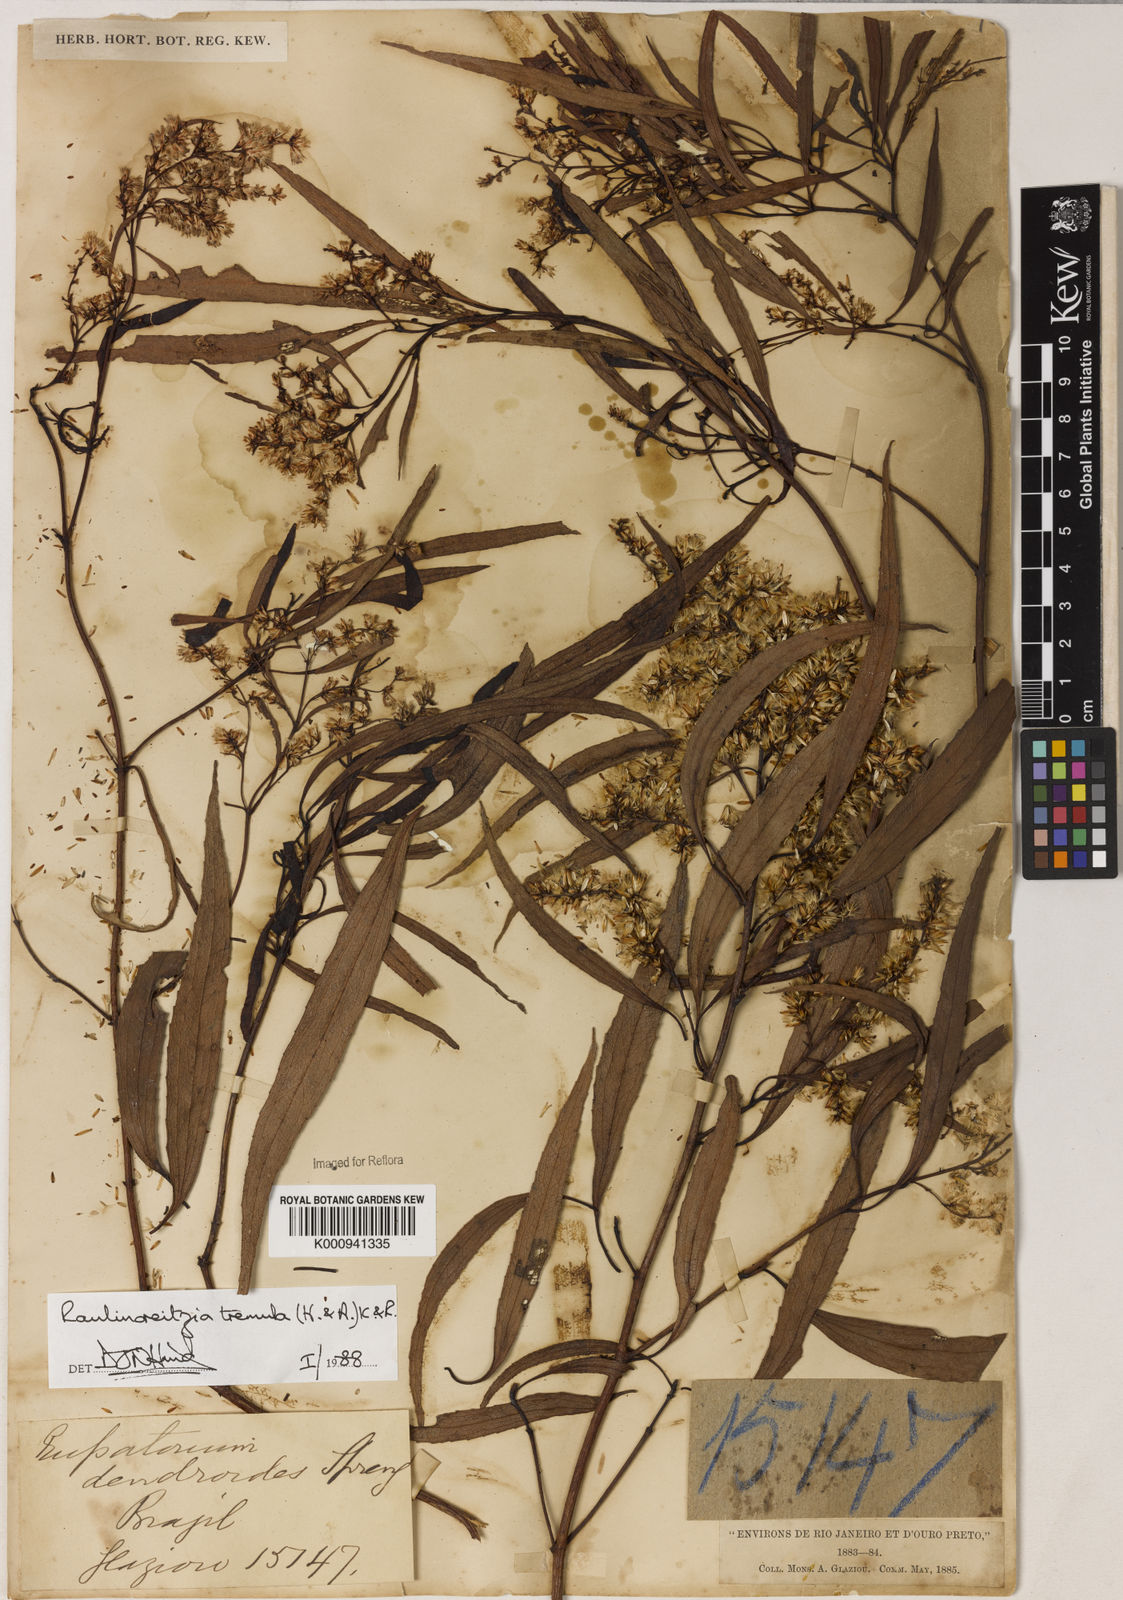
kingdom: Plantae
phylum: Tracheophyta
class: Magnoliopsida
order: Asterales
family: Asteraceae
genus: Raulinoreitzia
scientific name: Raulinoreitzia tremula
